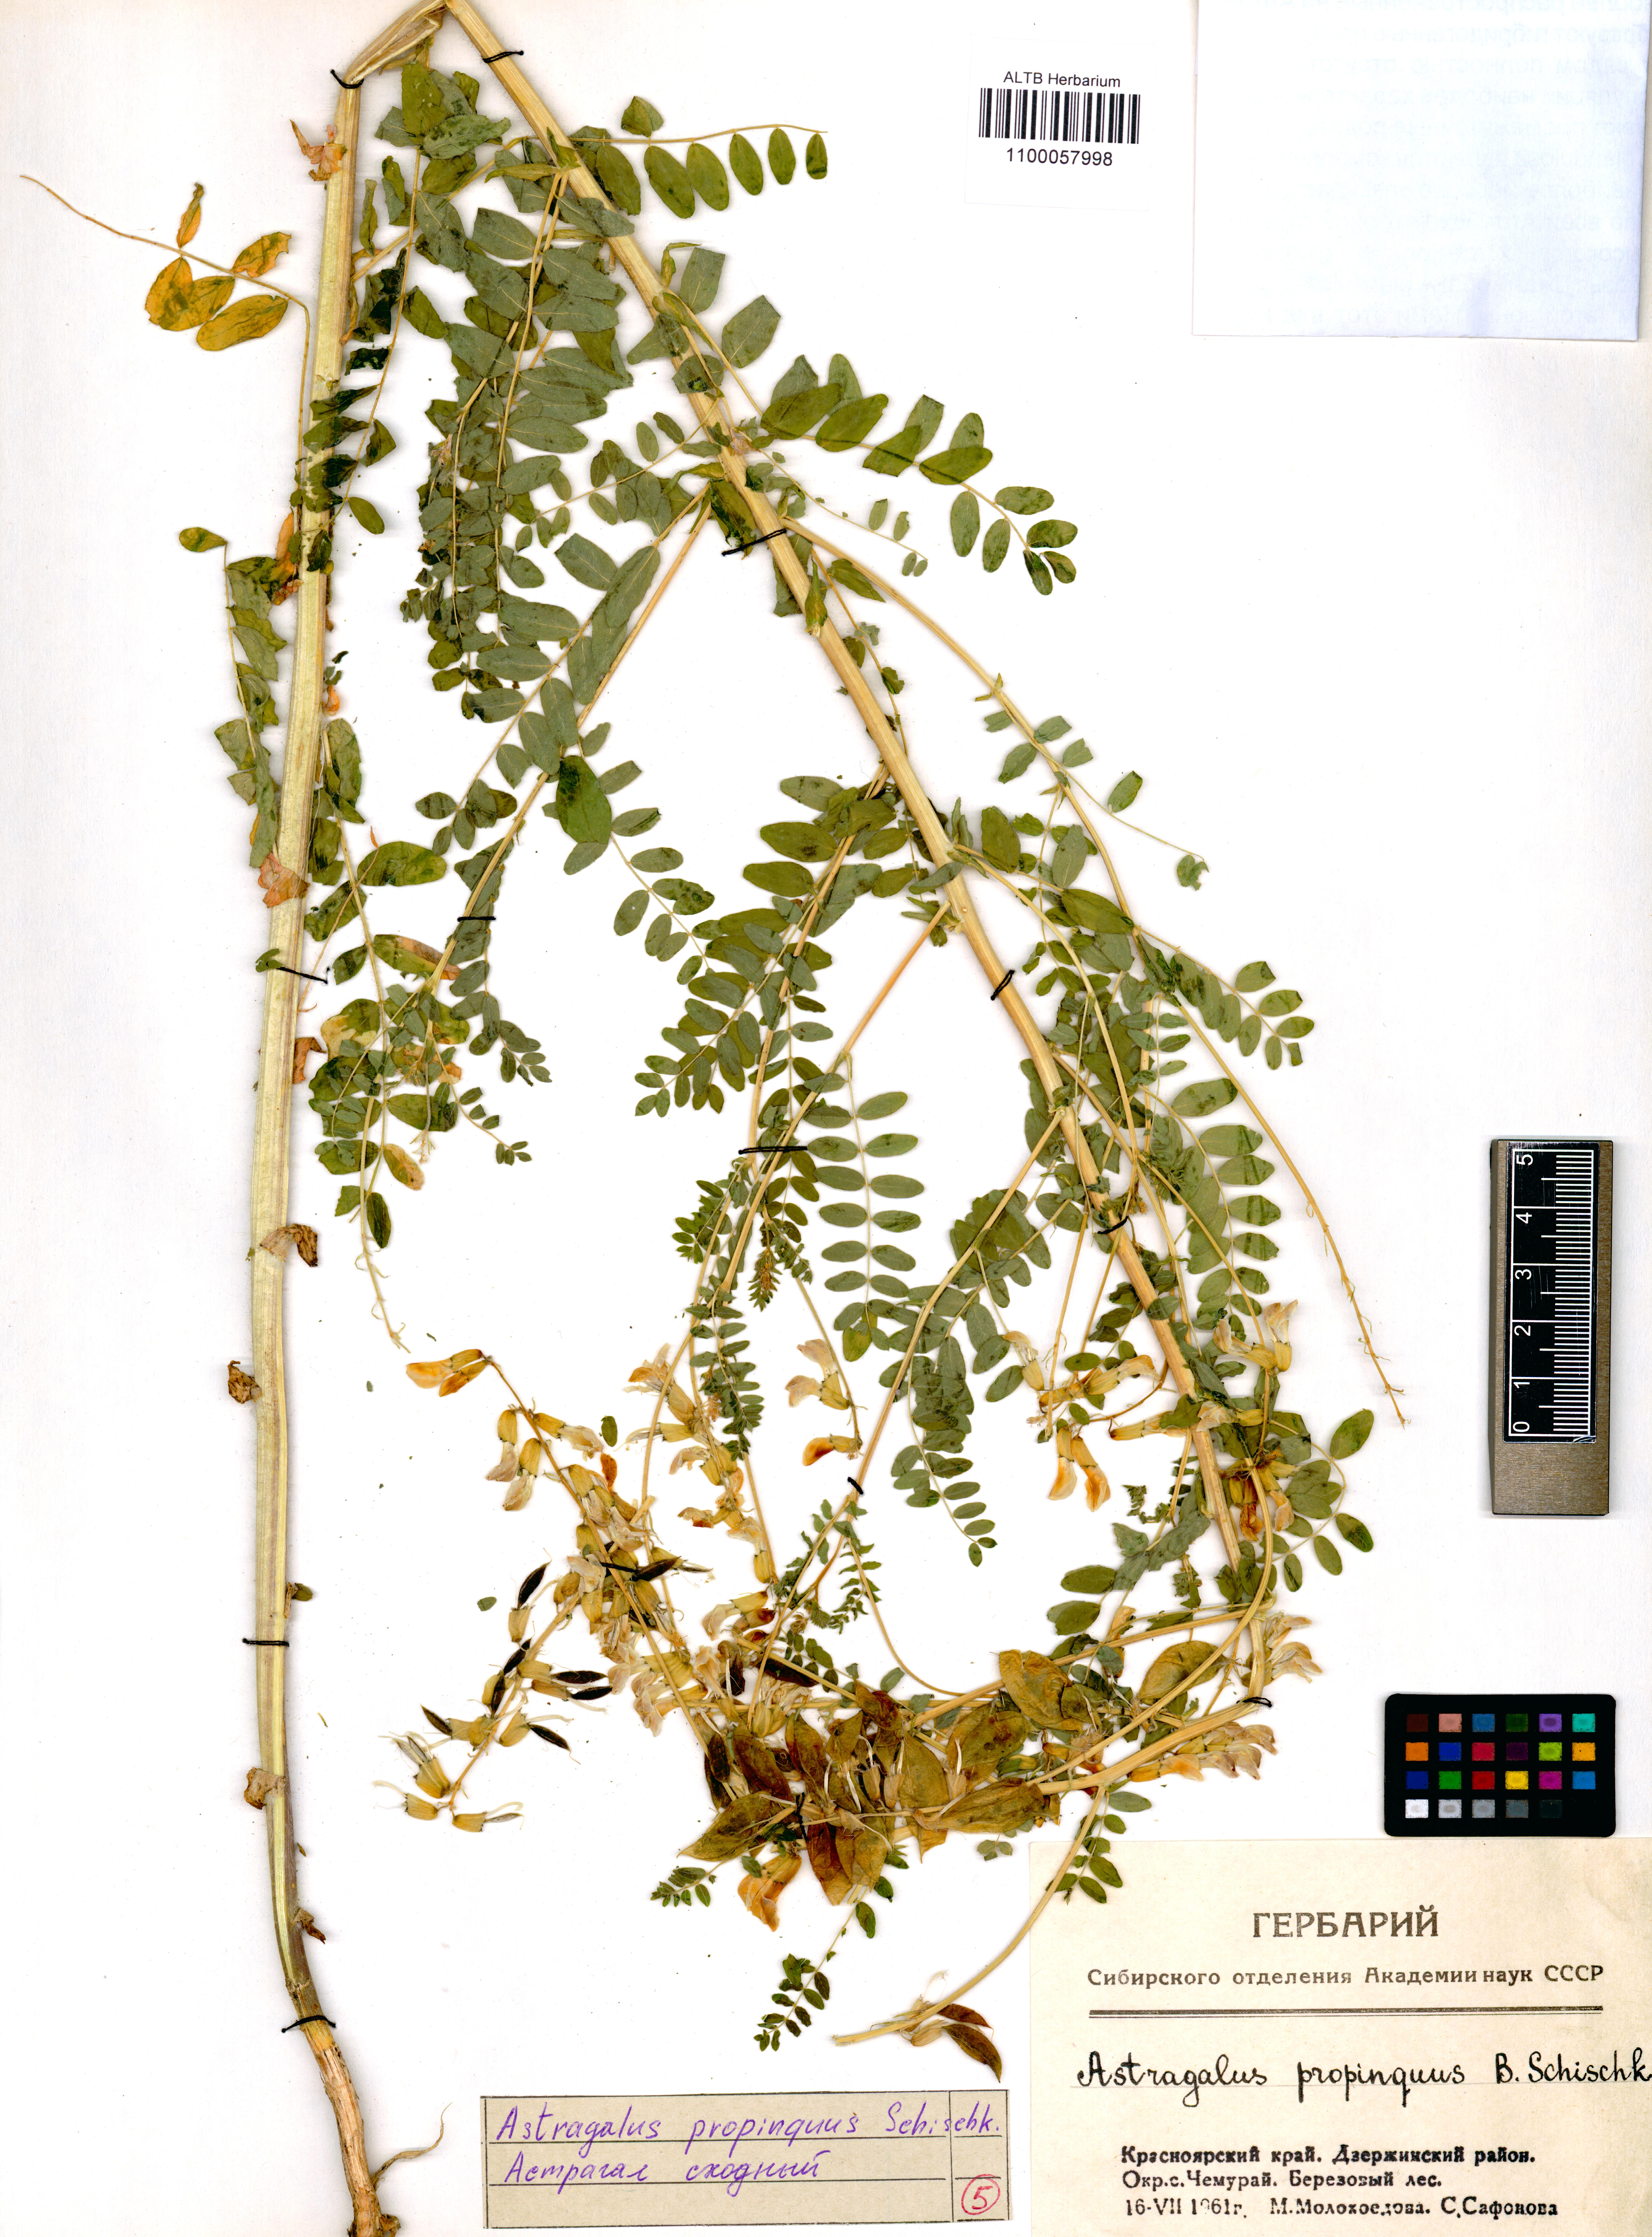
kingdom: Plantae
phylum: Tracheophyta
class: Magnoliopsida
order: Fabales
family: Fabaceae
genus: Astragalus
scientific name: Astragalus mongholicus
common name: Membranous milk-vetch
